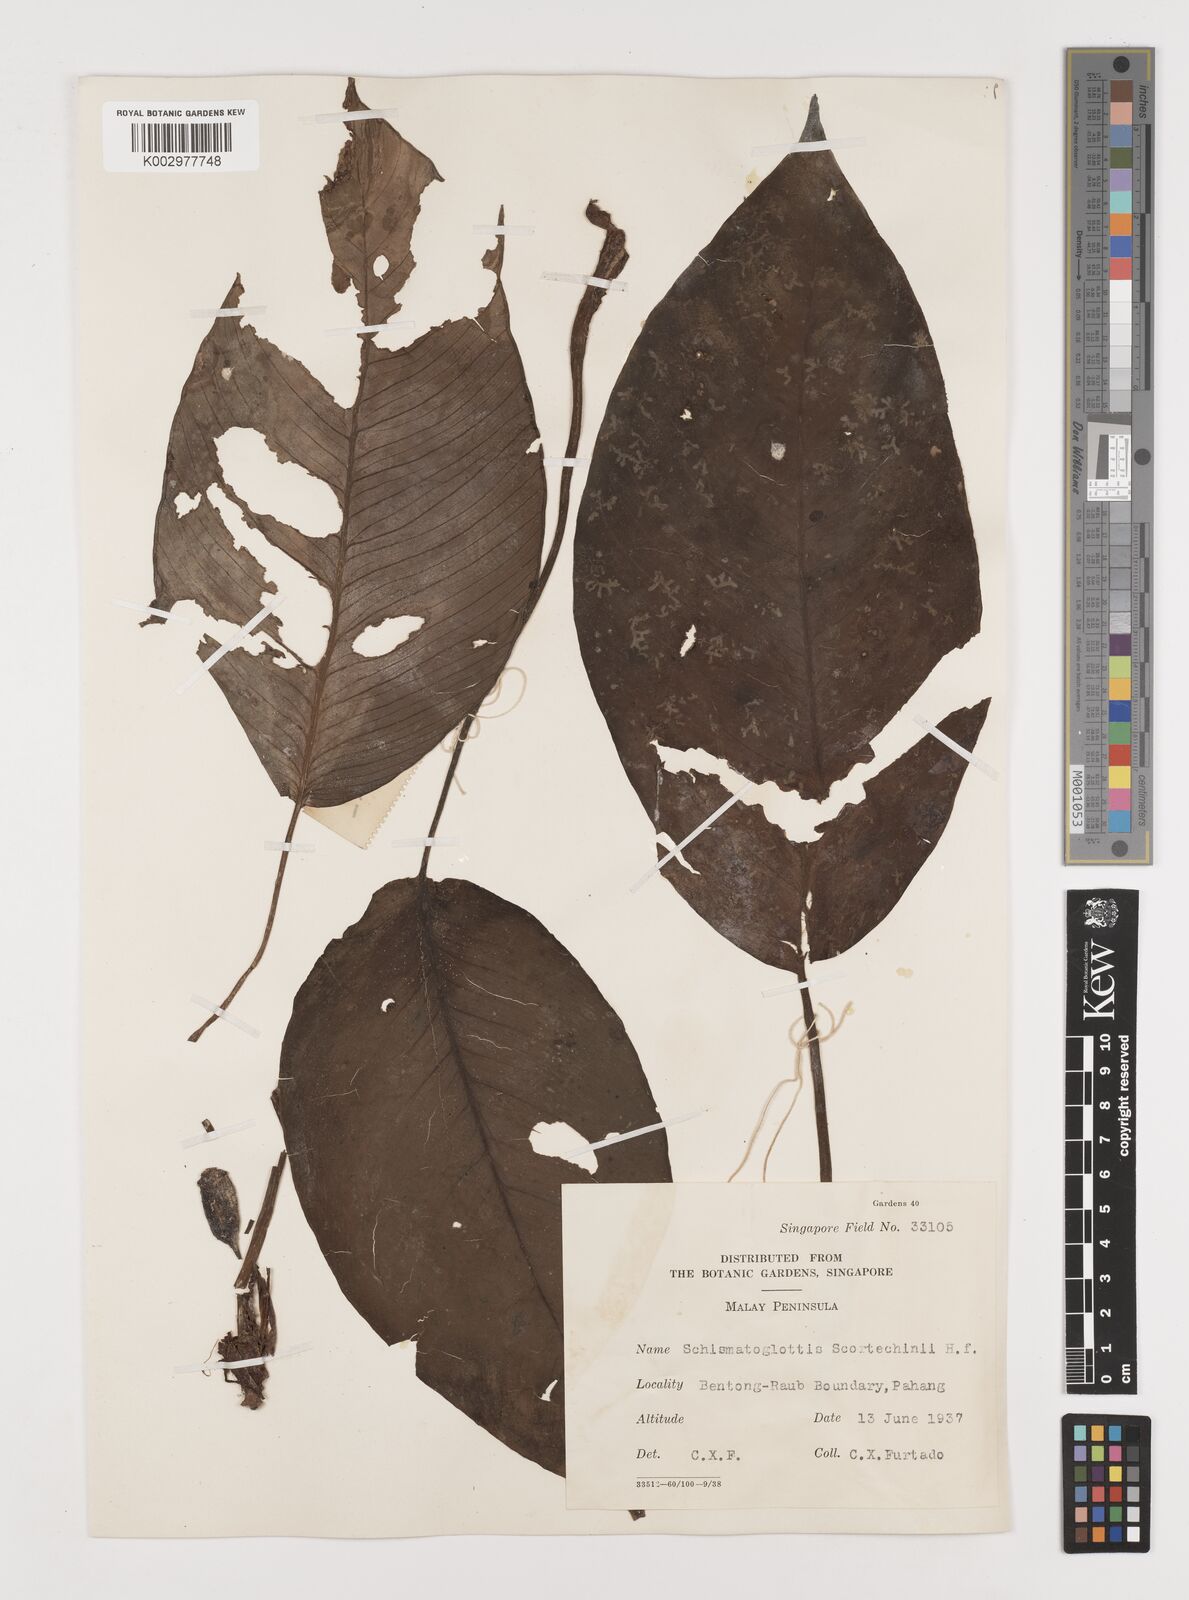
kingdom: Plantae
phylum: Tracheophyta
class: Liliopsida
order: Alismatales
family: Araceae
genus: Schismatoglottis
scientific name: Schismatoglottis scortechinii
